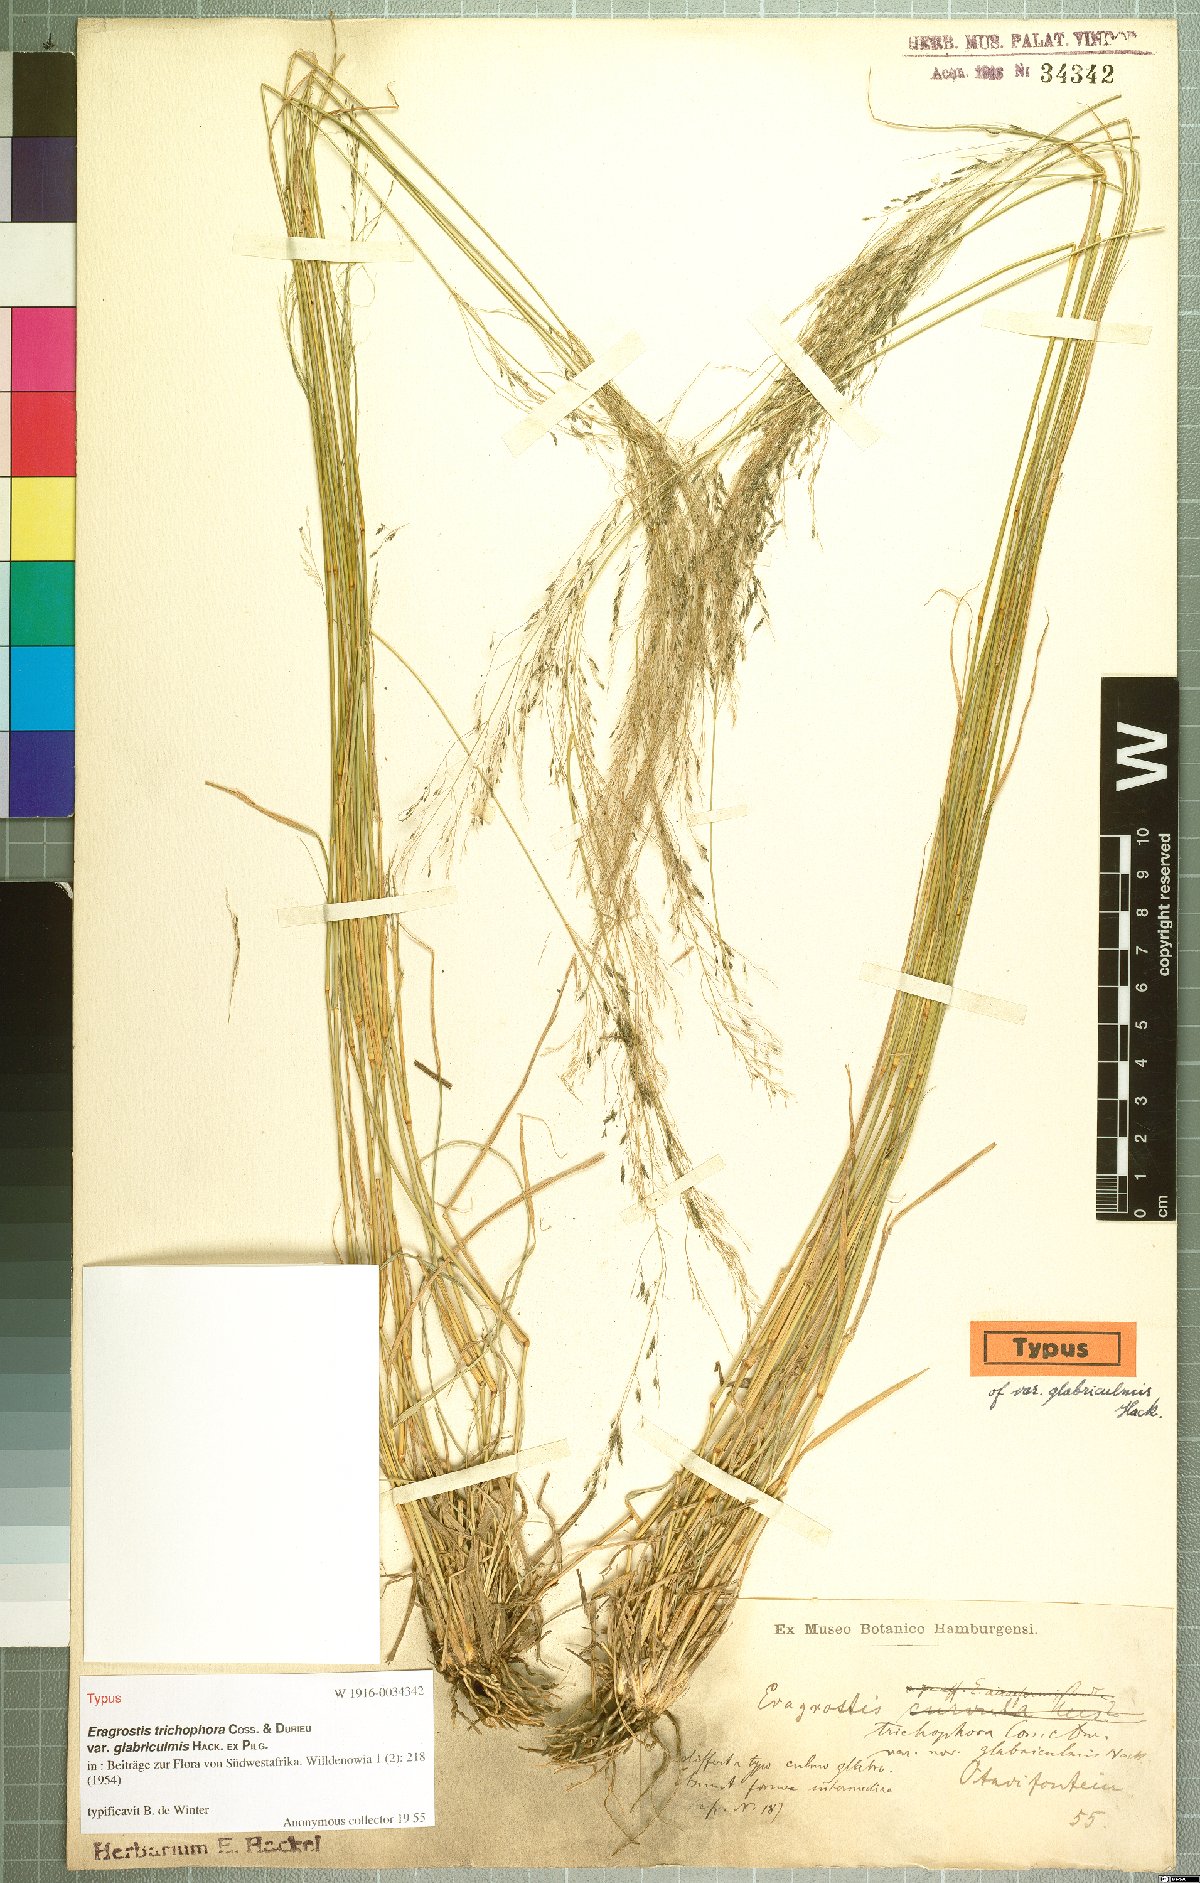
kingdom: Plantae
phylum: Tracheophyta
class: Liliopsida
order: Poales
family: Poaceae
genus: Eragrostis
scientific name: Eragrostis cylindriflora
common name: Cylinderflower lovegrass
